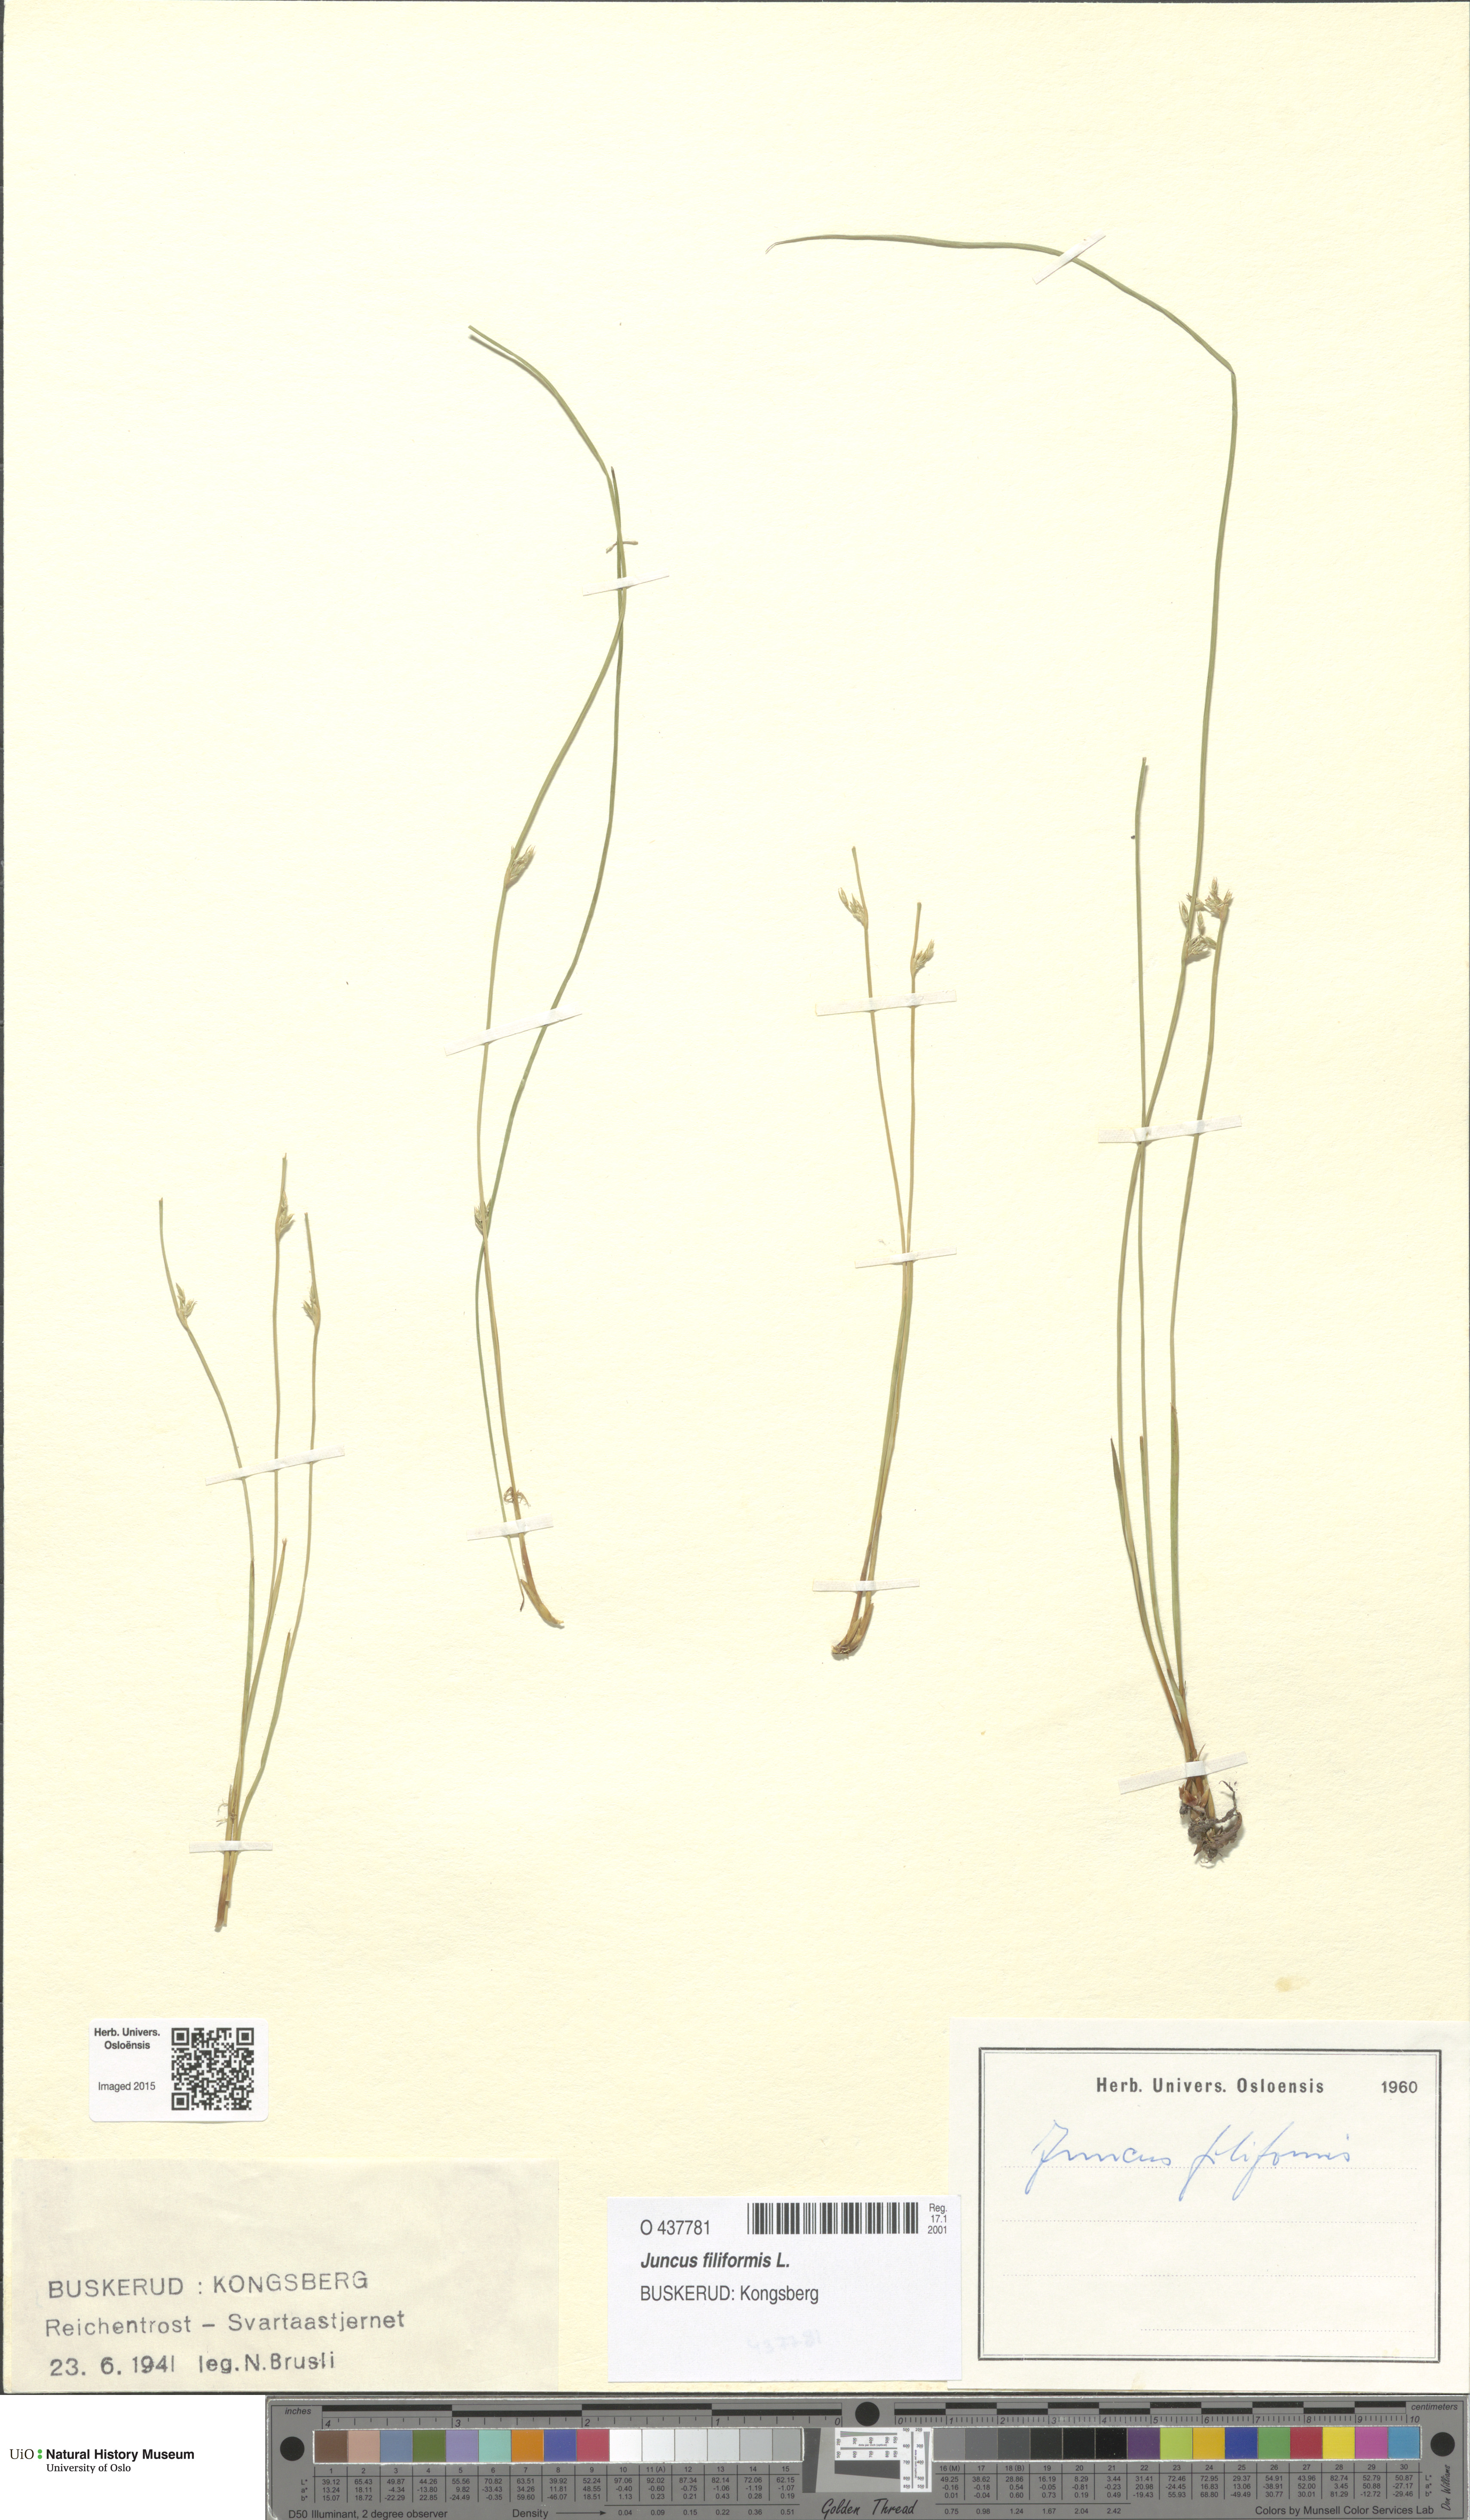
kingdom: Plantae
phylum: Tracheophyta
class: Liliopsida
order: Poales
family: Juncaceae
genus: Juncus
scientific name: Juncus filiformis
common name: Thread rush
